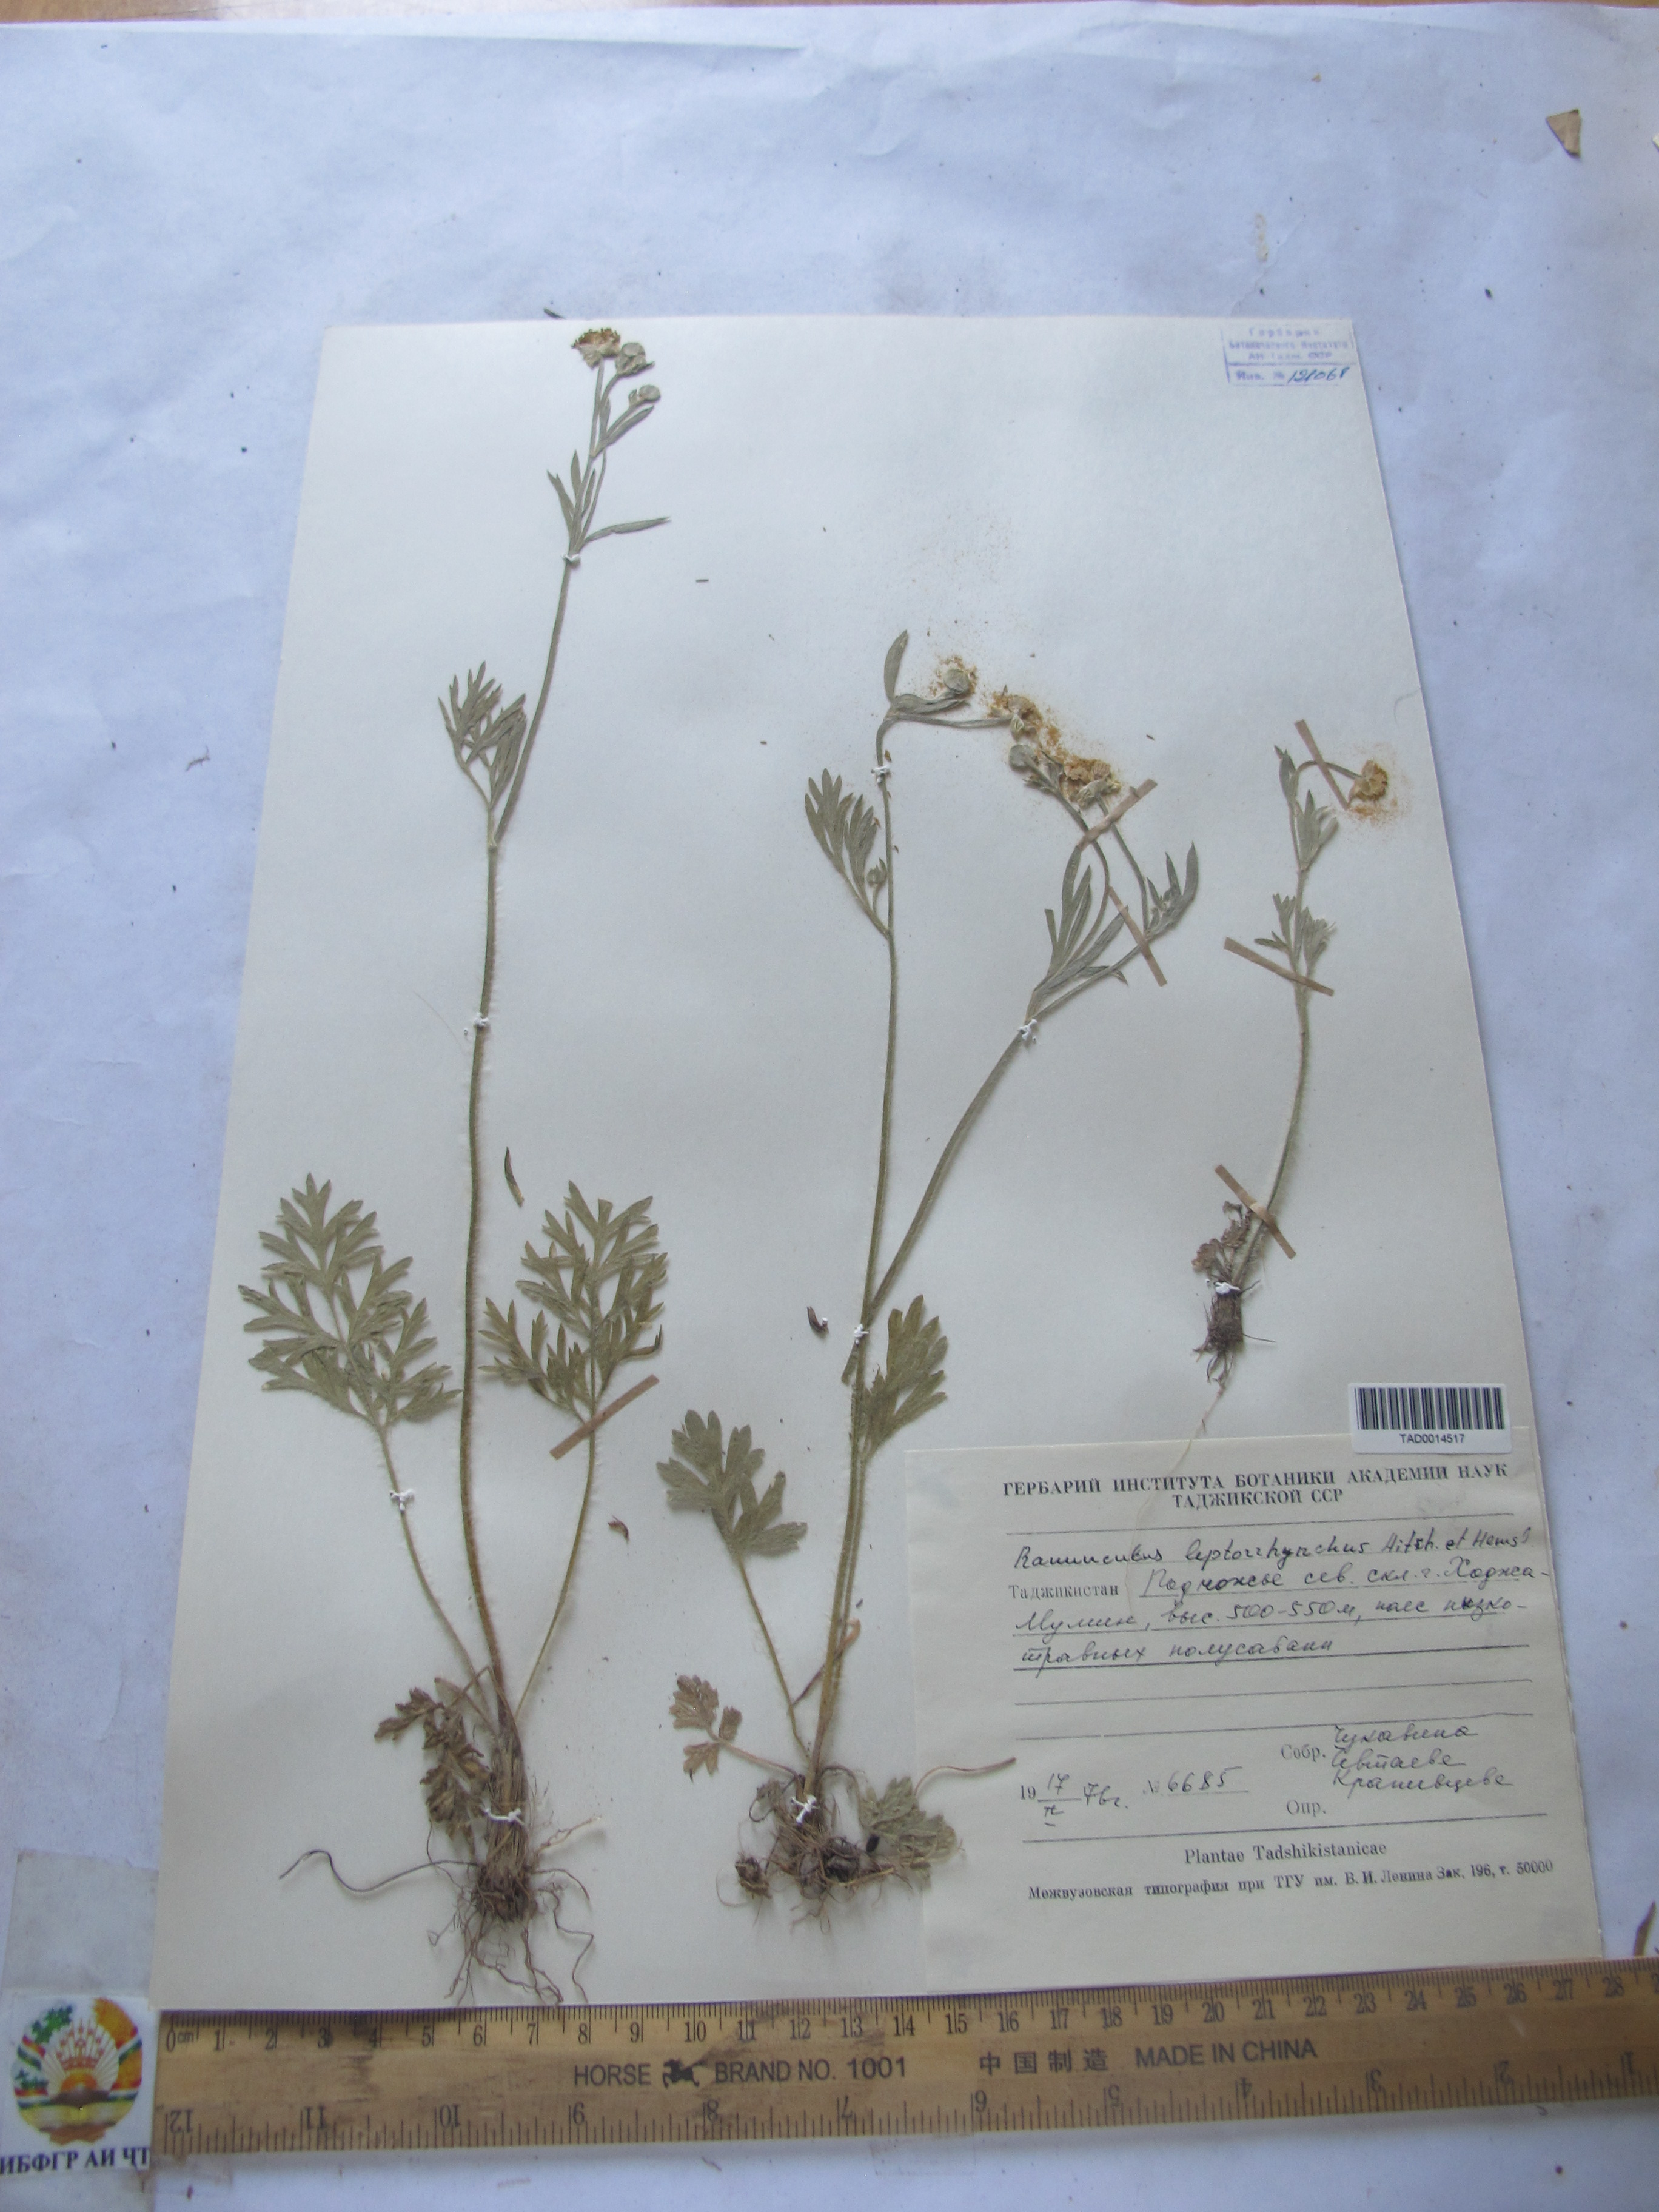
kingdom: Plantae
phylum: Tracheophyta
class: Magnoliopsida
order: Ranunculales
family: Ranunculaceae
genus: Ranunculus
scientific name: Ranunculus leptorrhynchus
